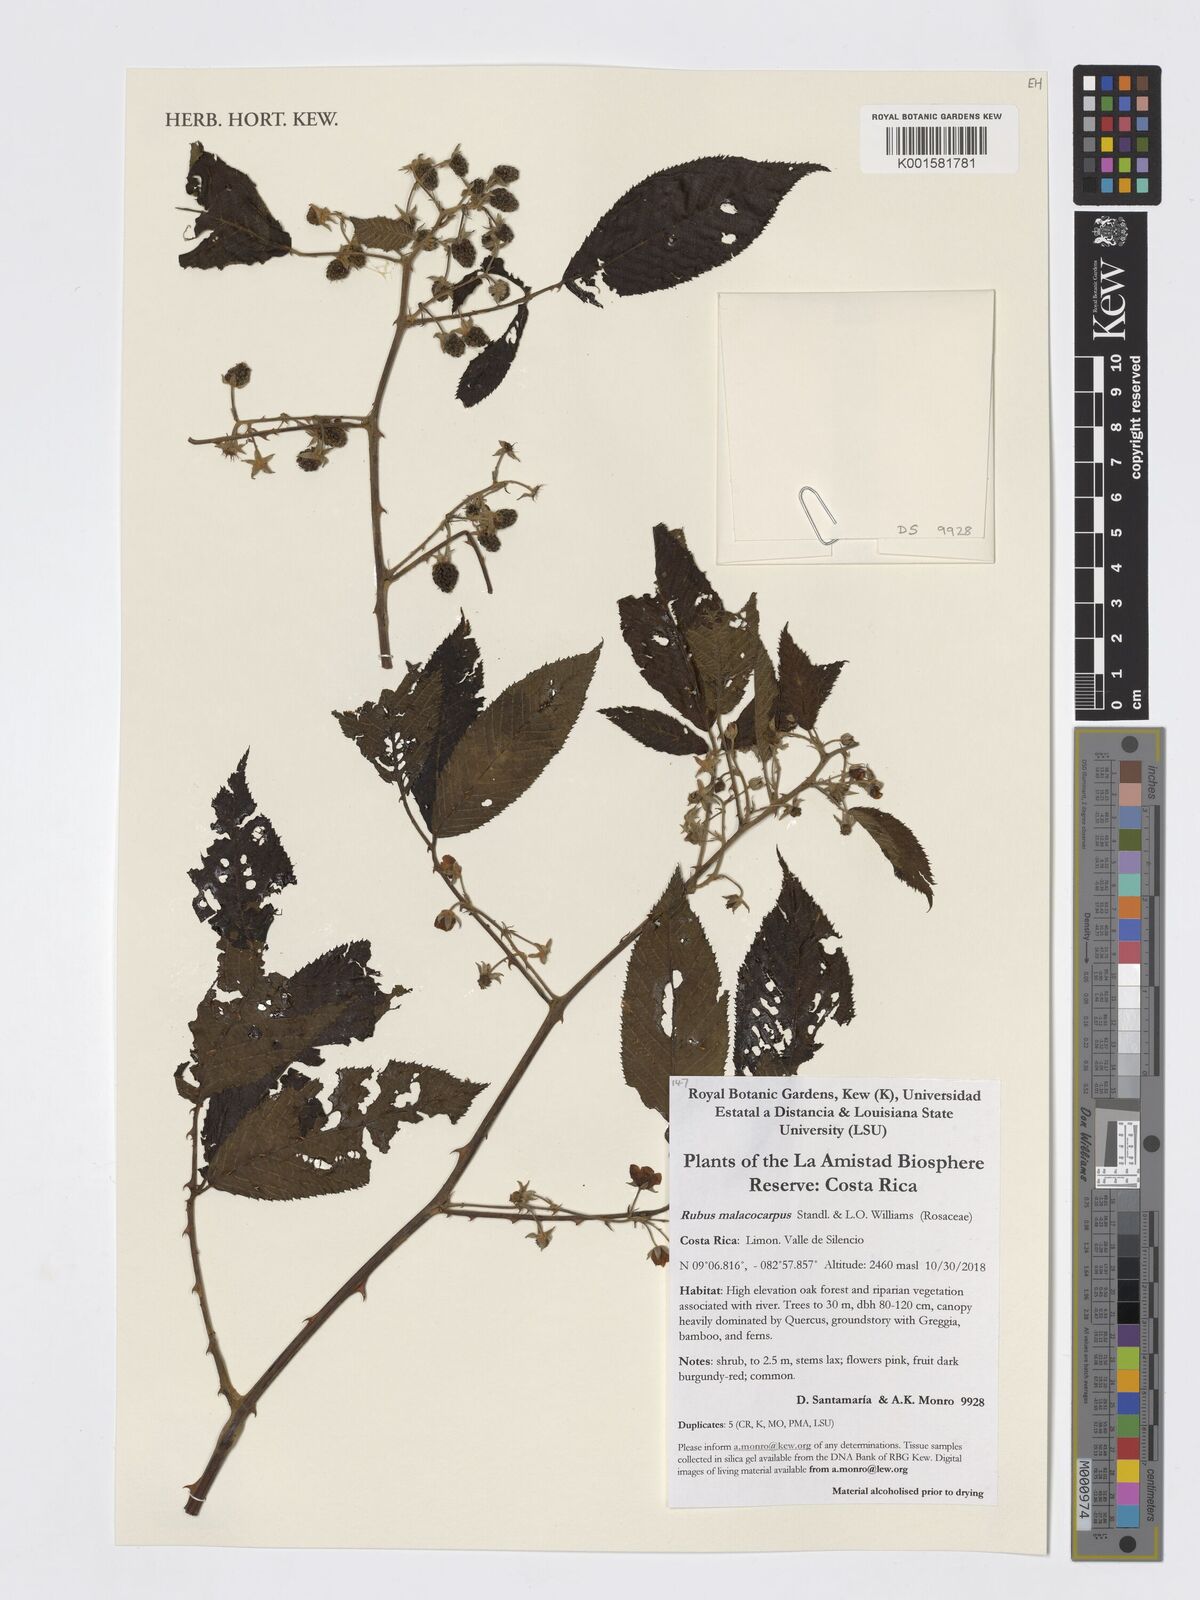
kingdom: Plantae
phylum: Tracheophyta
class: Magnoliopsida
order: Rosales
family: Rosaceae
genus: Rubus
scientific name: Rubus malacocarpus
